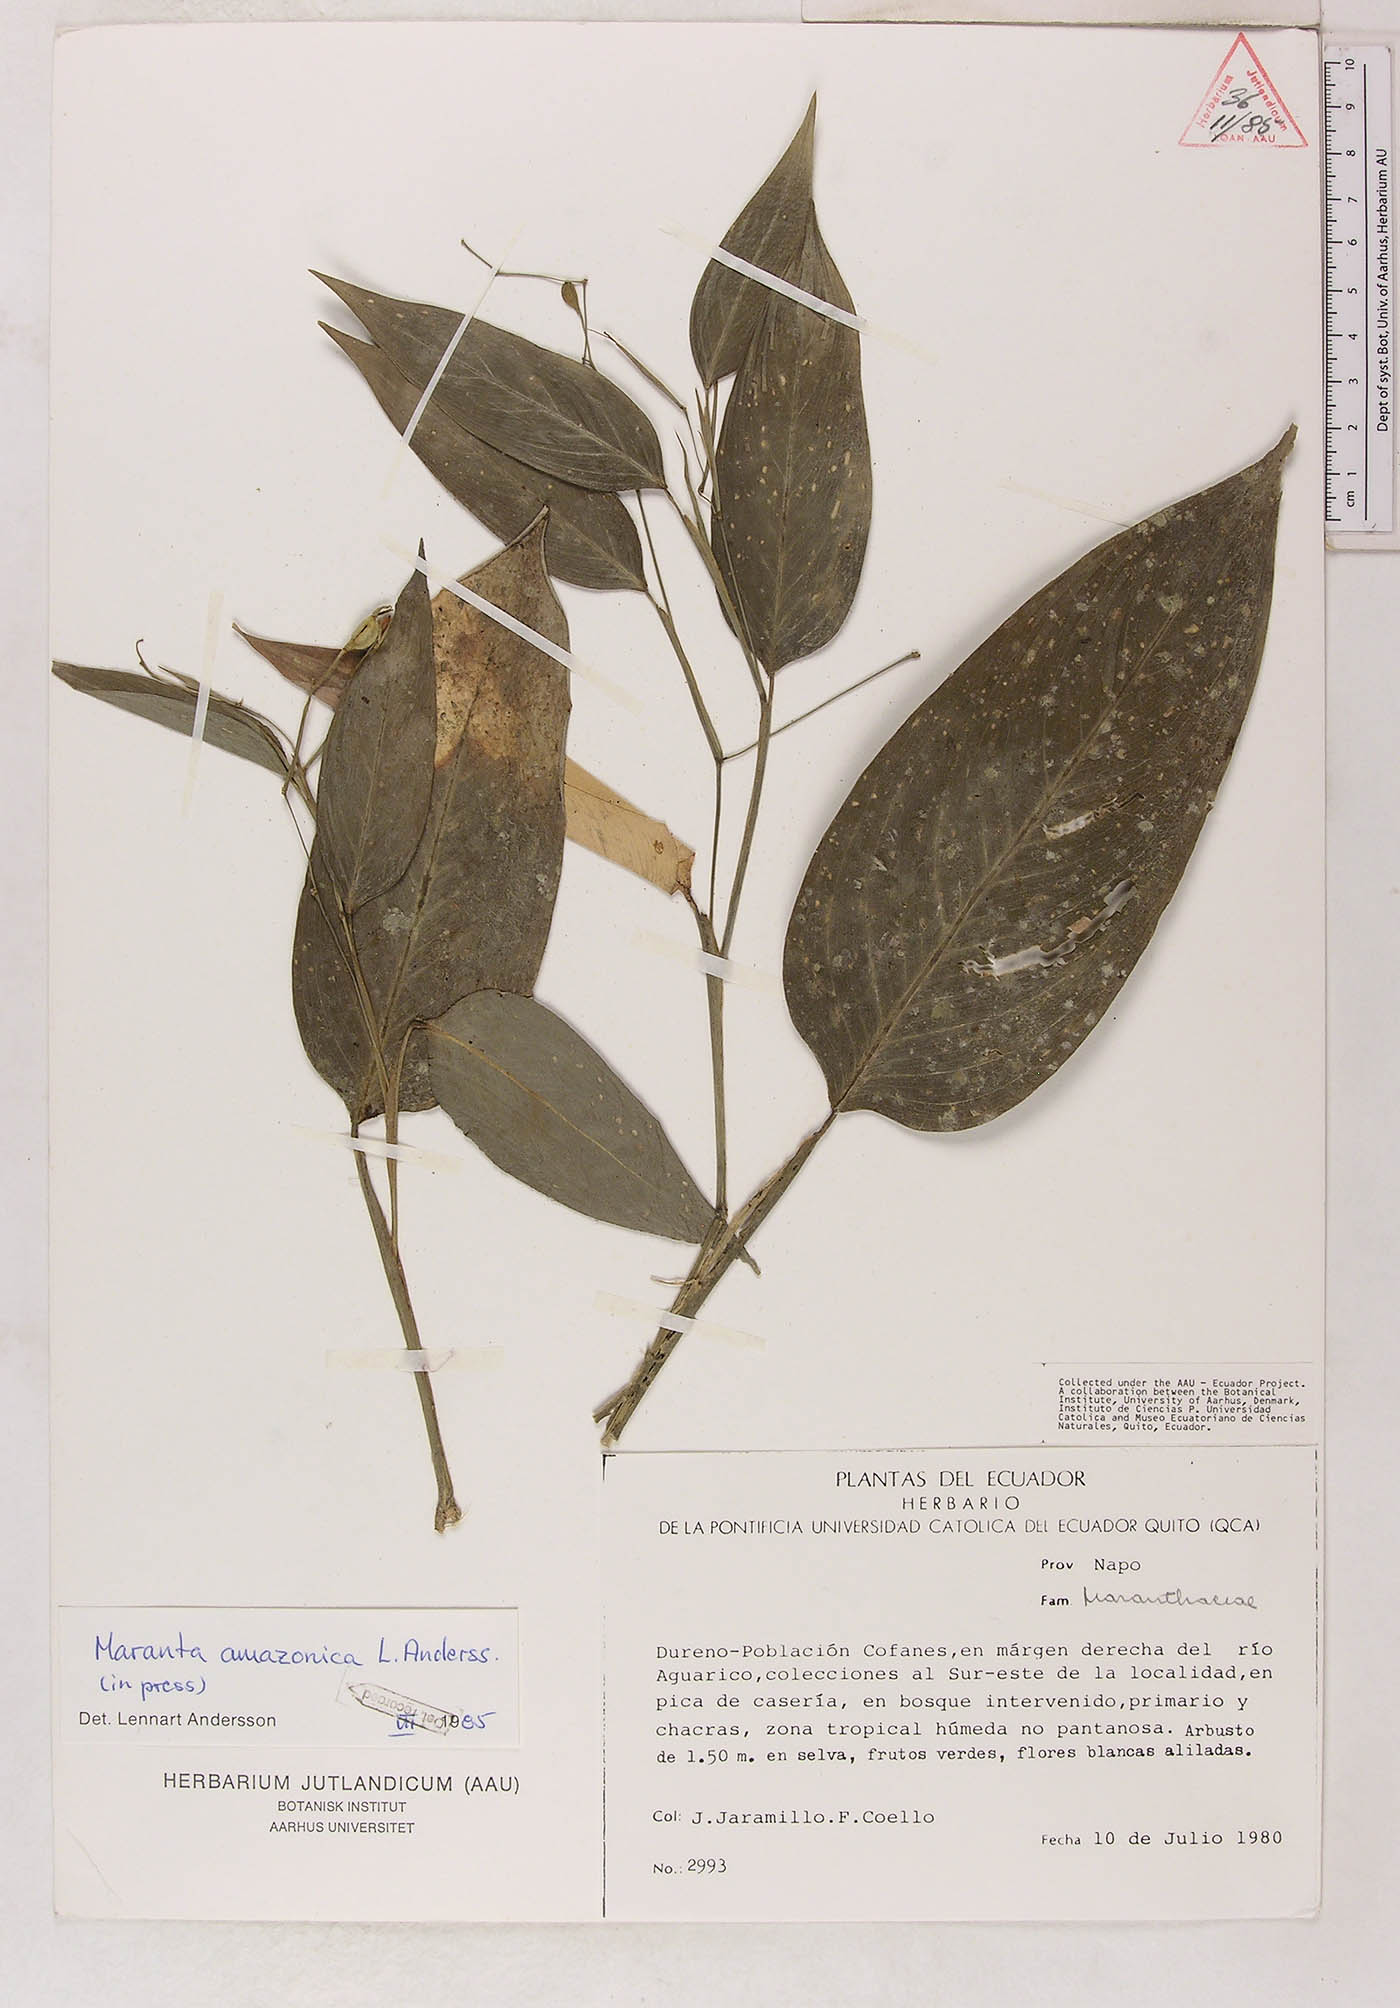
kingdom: Plantae
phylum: Tracheophyta
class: Liliopsida
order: Zingiberales
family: Marantaceae
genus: Maranta
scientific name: Maranta amazonica
